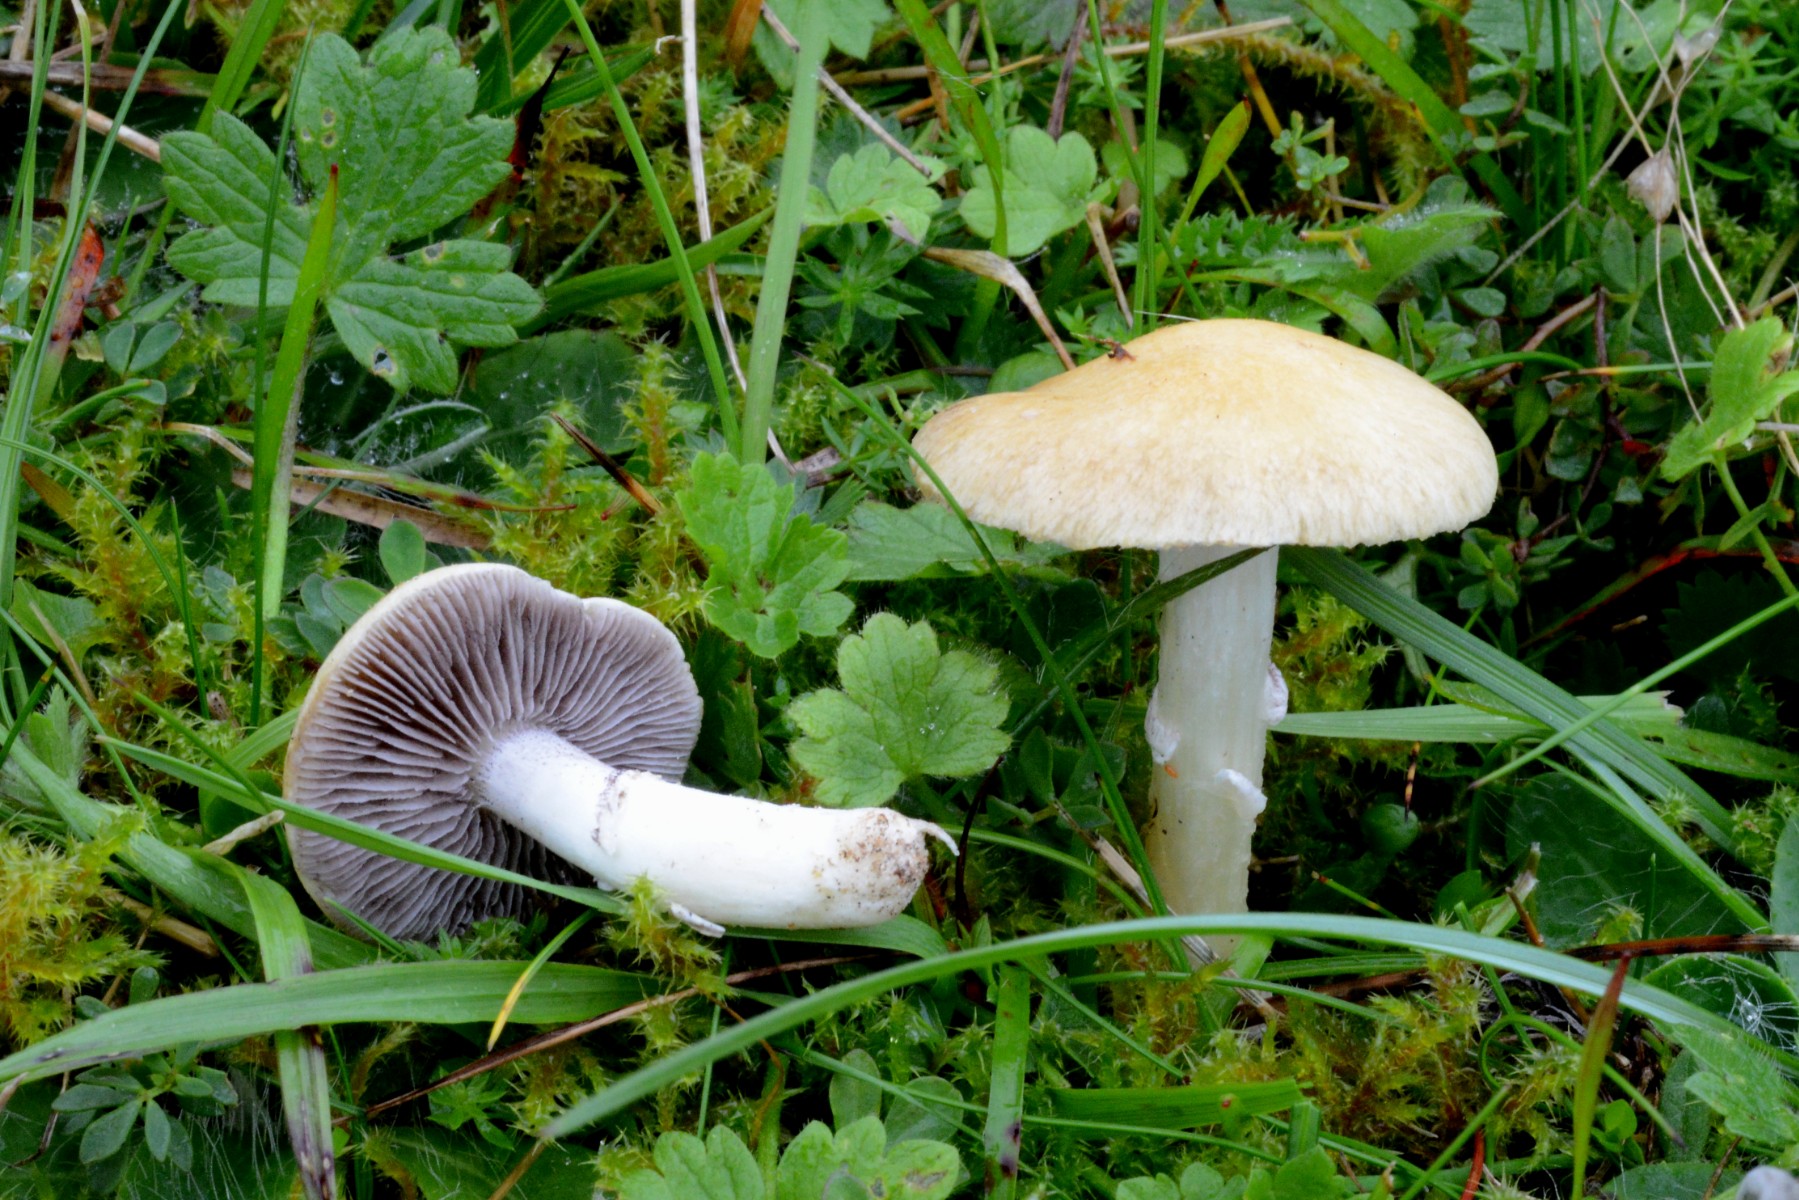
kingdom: Fungi
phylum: Basidiomycota
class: Agaricomycetes
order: Agaricales
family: Hymenogastraceae
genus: Psilocybe
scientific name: Psilocybe coronilla
